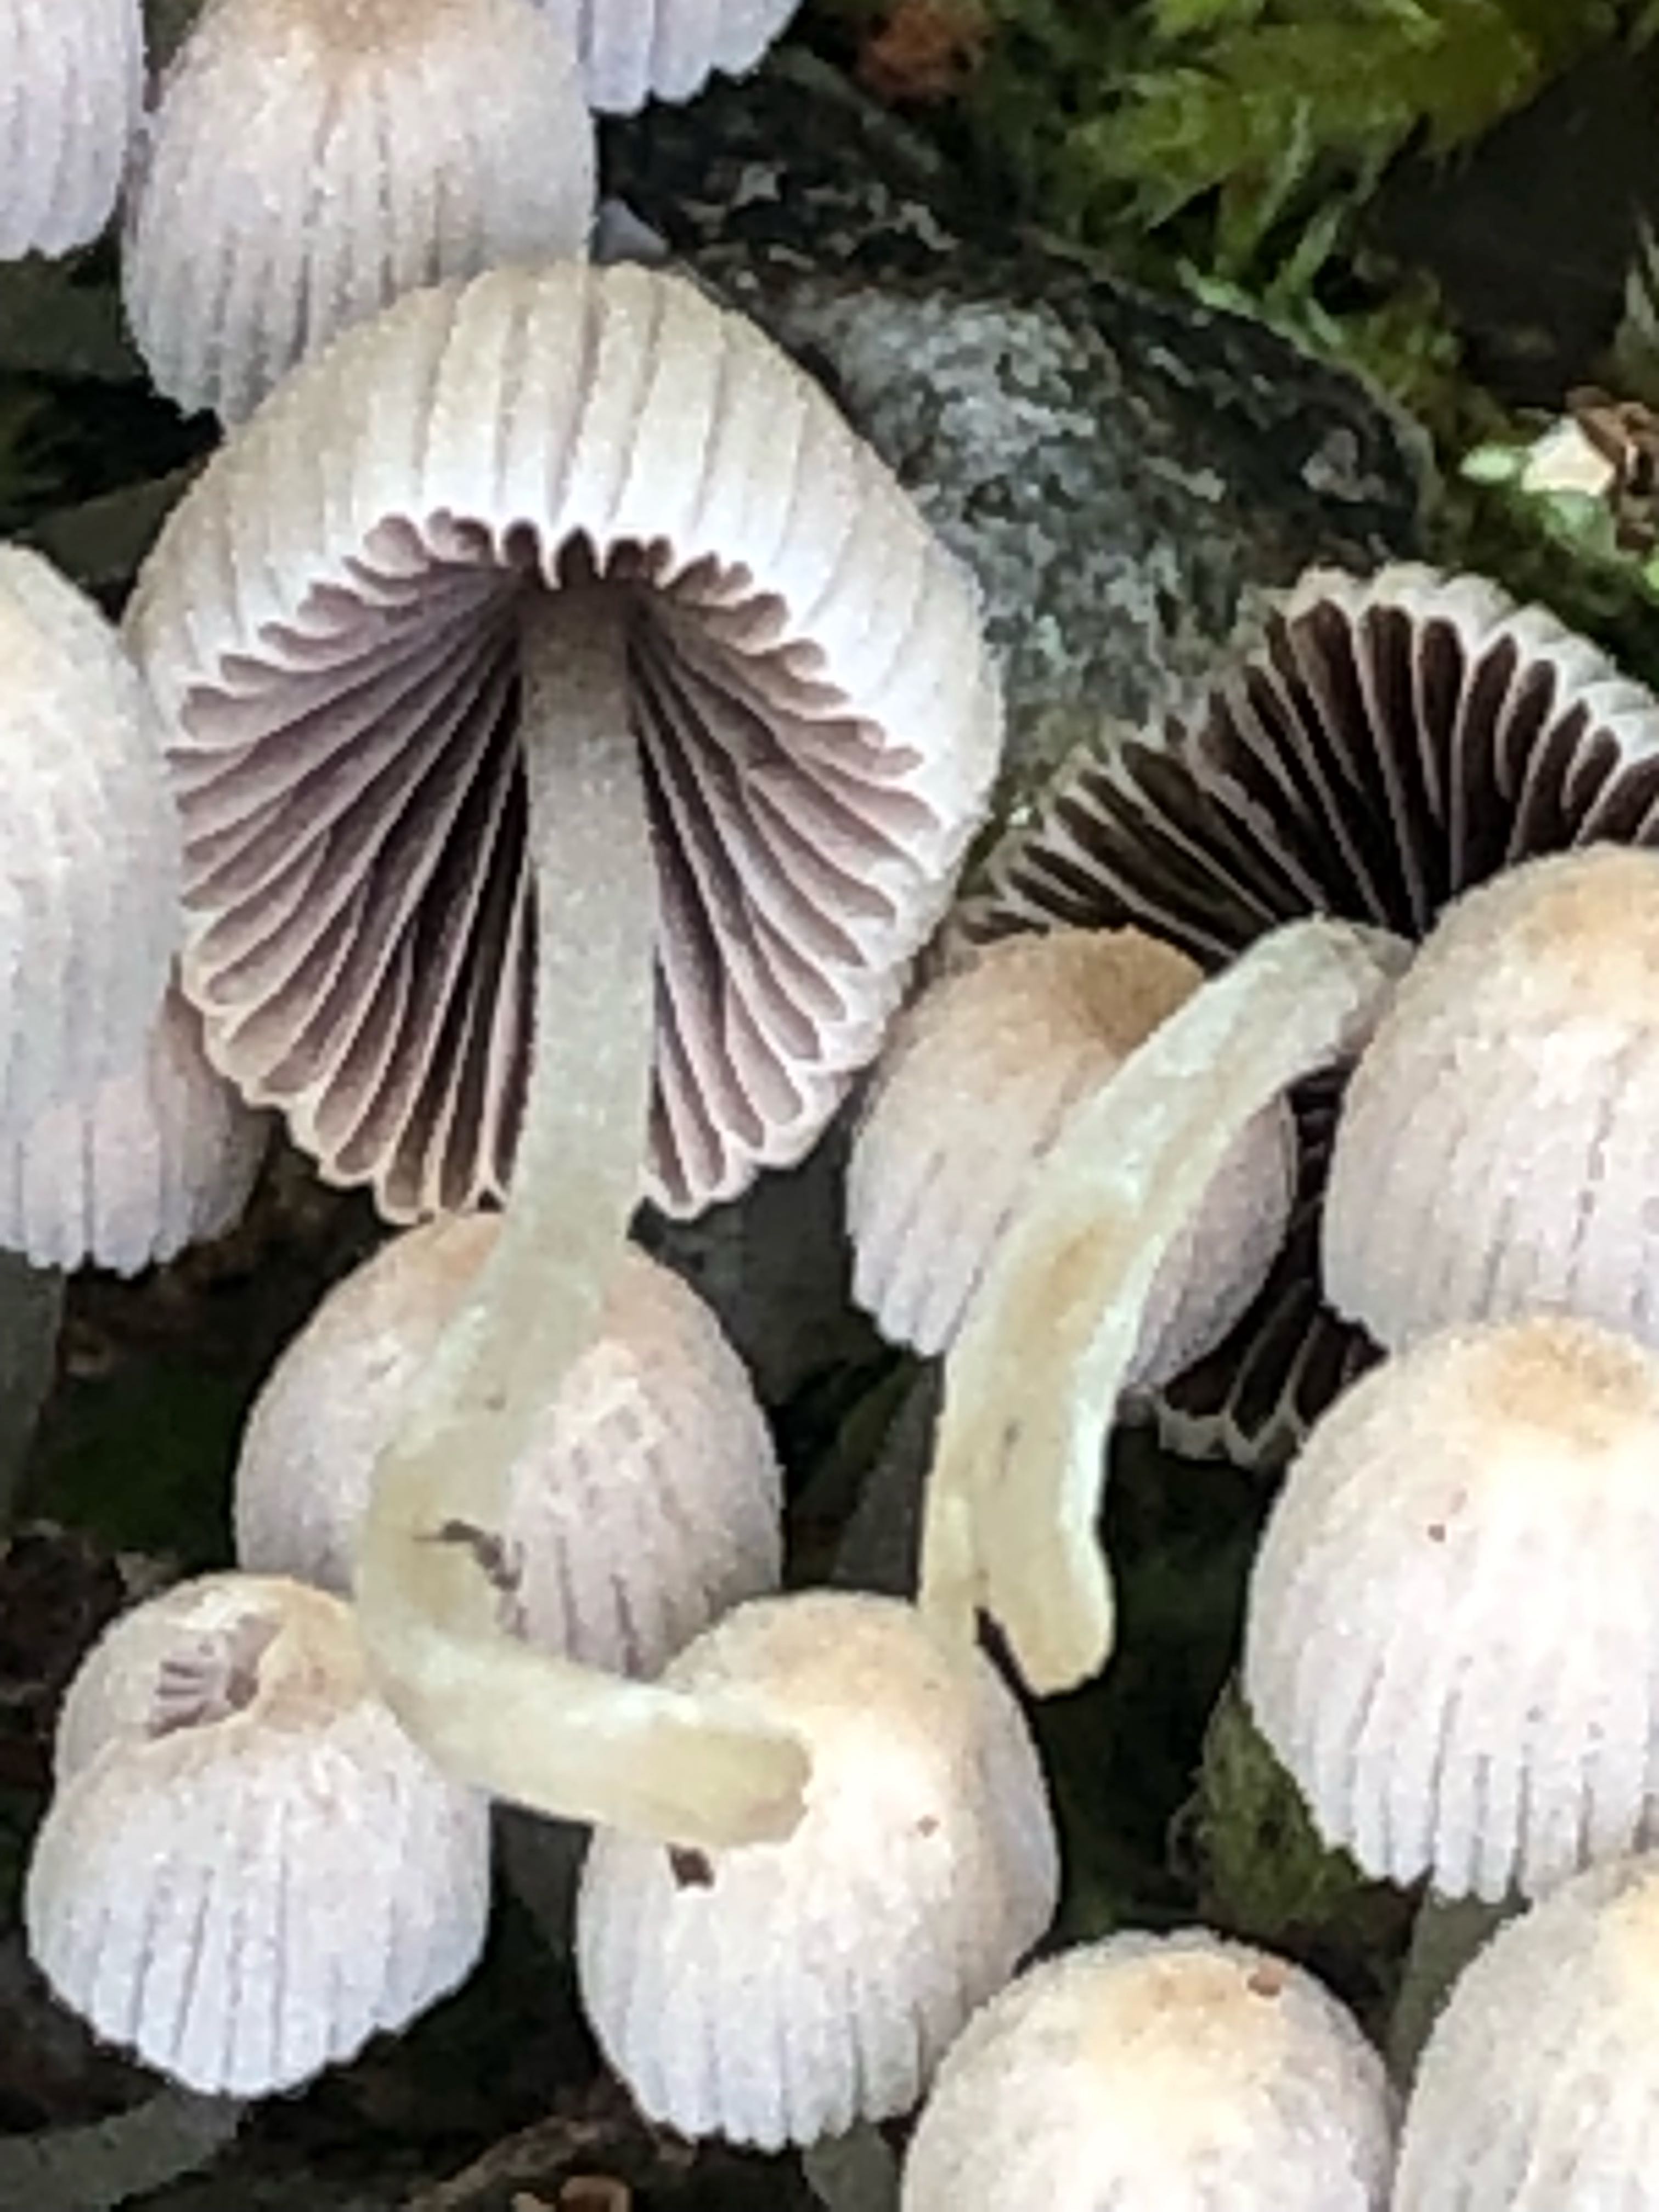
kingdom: Fungi
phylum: Basidiomycota
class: Agaricomycetes
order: Agaricales
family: Psathyrellaceae
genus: Coprinellus
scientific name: Coprinellus disseminatus
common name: bredsået blækhat
